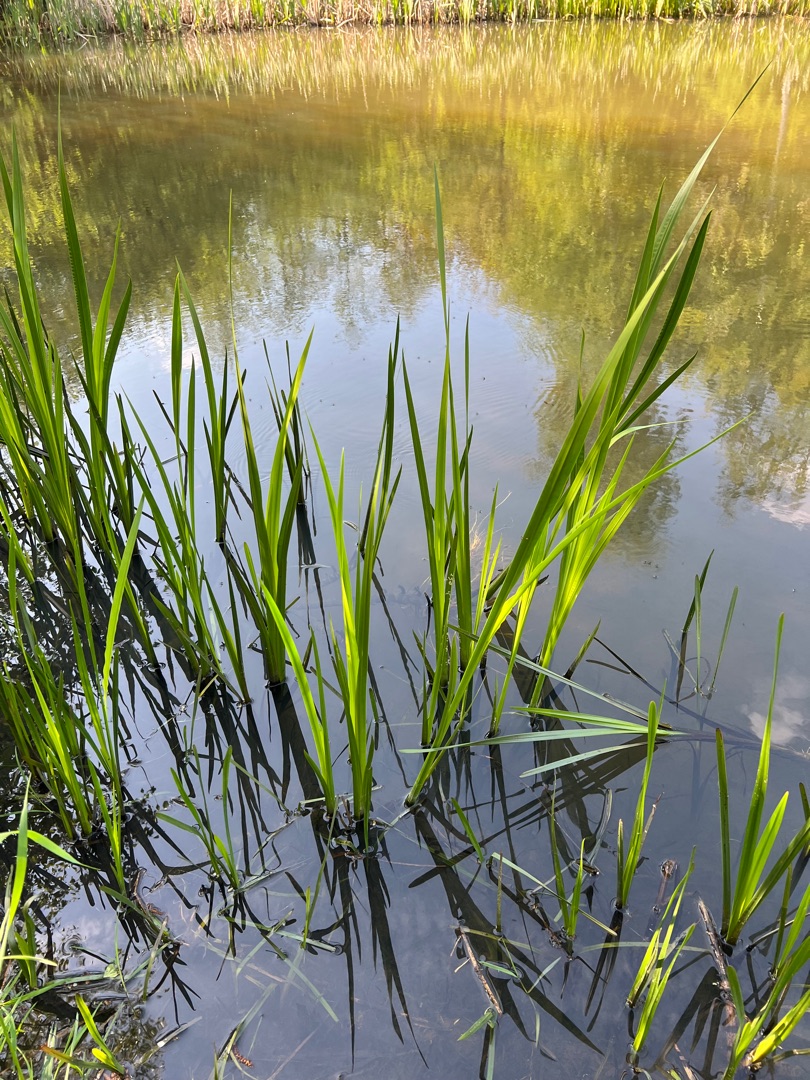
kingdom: Plantae
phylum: Tracheophyta
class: Liliopsida
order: Acorales
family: Acoraceae
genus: Acorus
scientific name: Acorus calamus
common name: Kalmus
